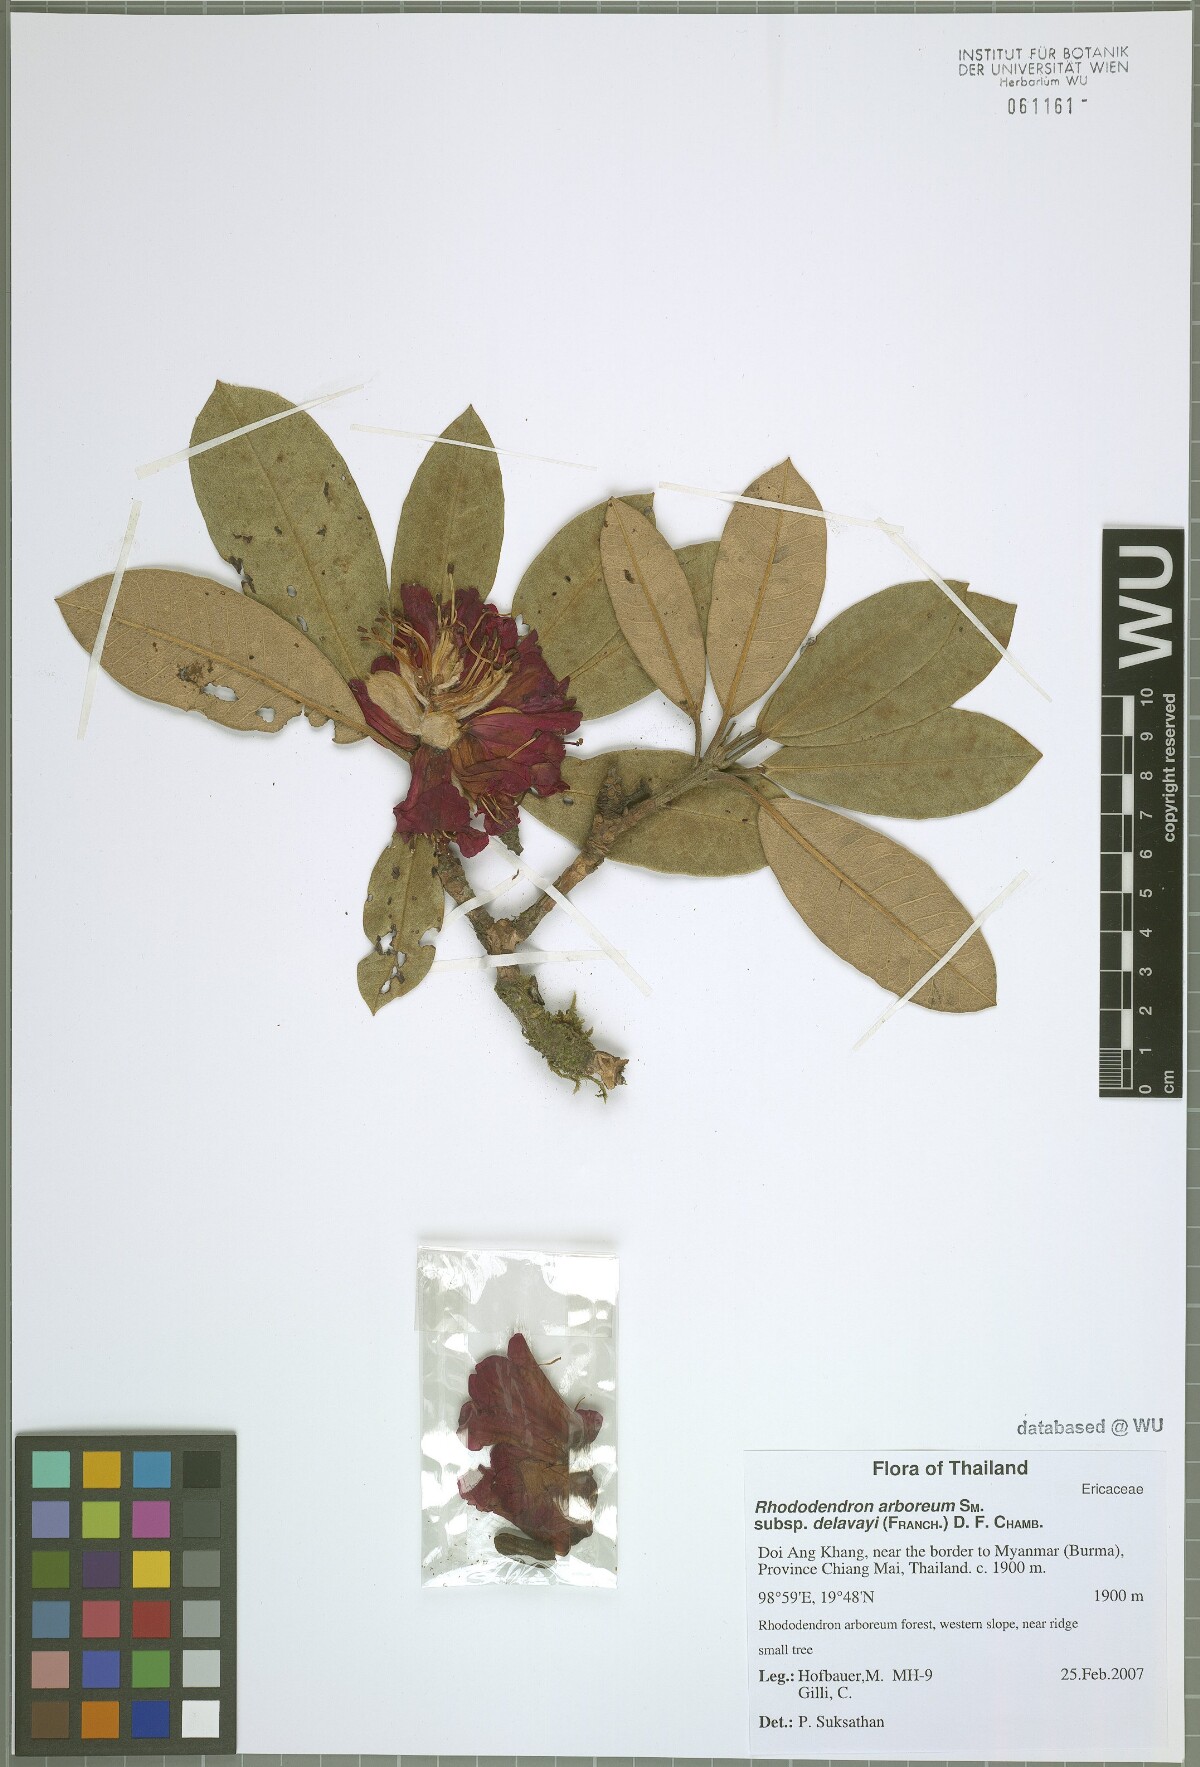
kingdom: Plantae
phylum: Tracheophyta
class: Magnoliopsida
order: Ericales
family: Ericaceae
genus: Rhododendron
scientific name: Rhododendron delavayi
